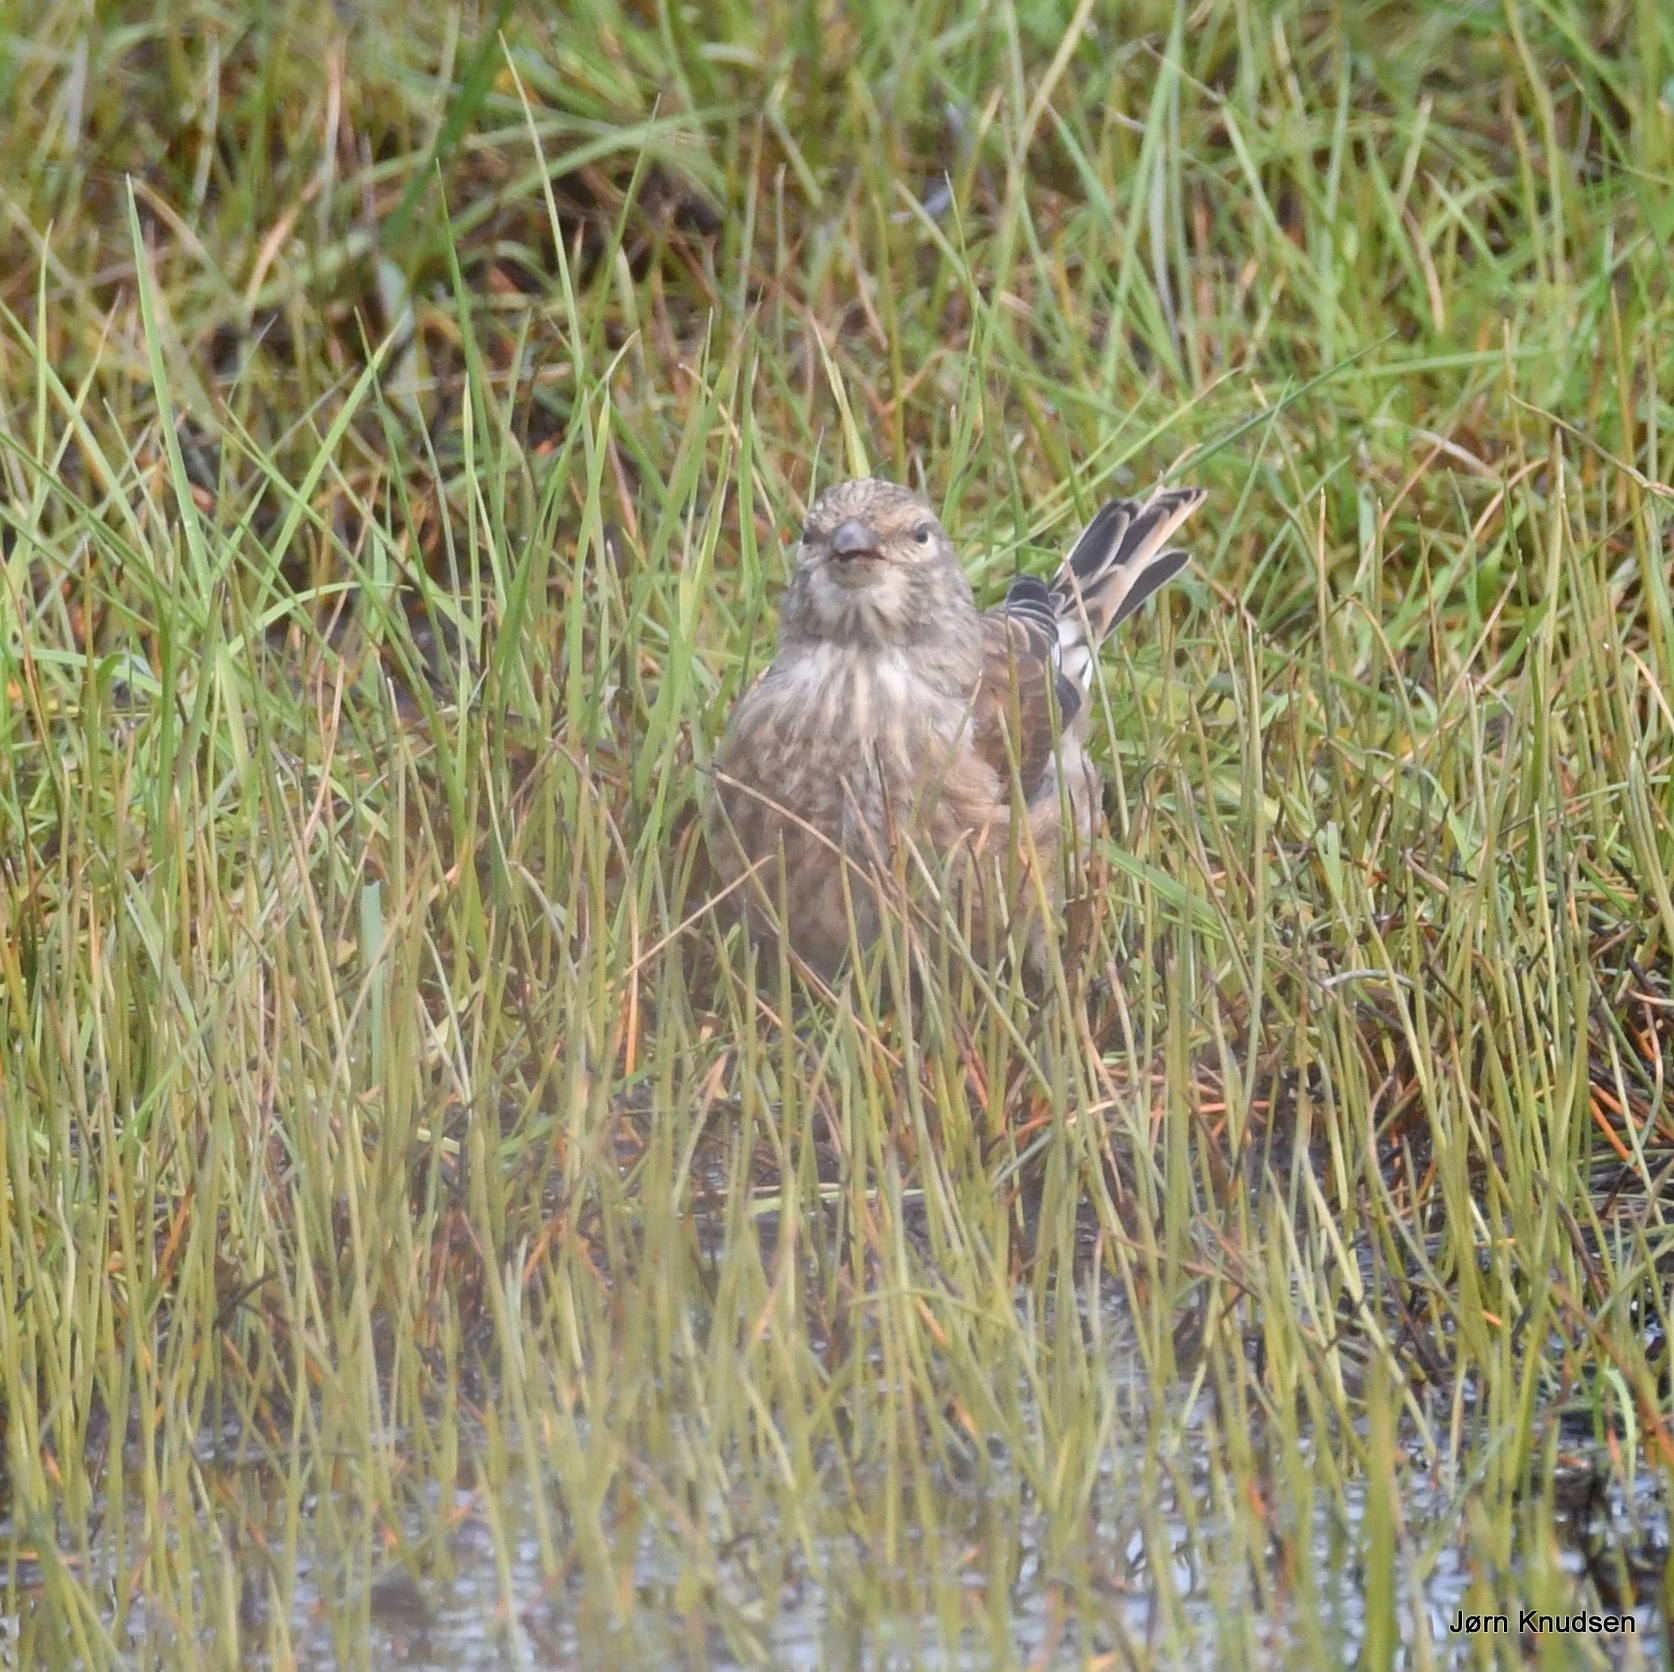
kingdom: Animalia
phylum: Chordata
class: Aves
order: Passeriformes
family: Fringillidae
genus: Linaria
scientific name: Linaria cannabina
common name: Tornirisk
